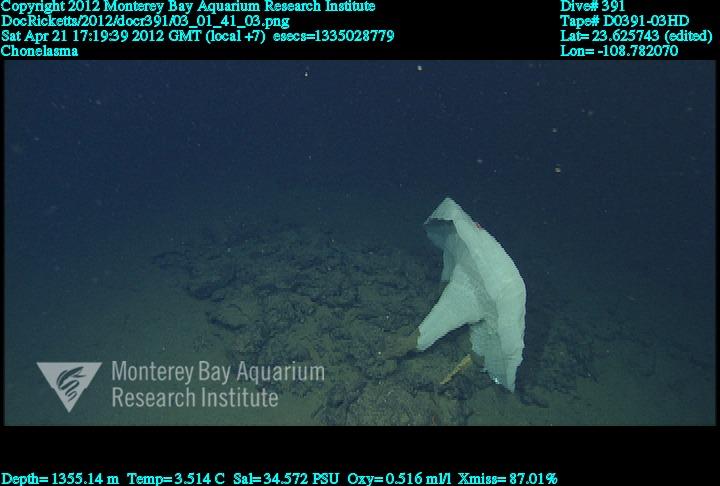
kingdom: Animalia
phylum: Porifera
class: Hexactinellida
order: Sceptrulophora
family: Euretidae
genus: Chonelasma
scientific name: Chonelasma
